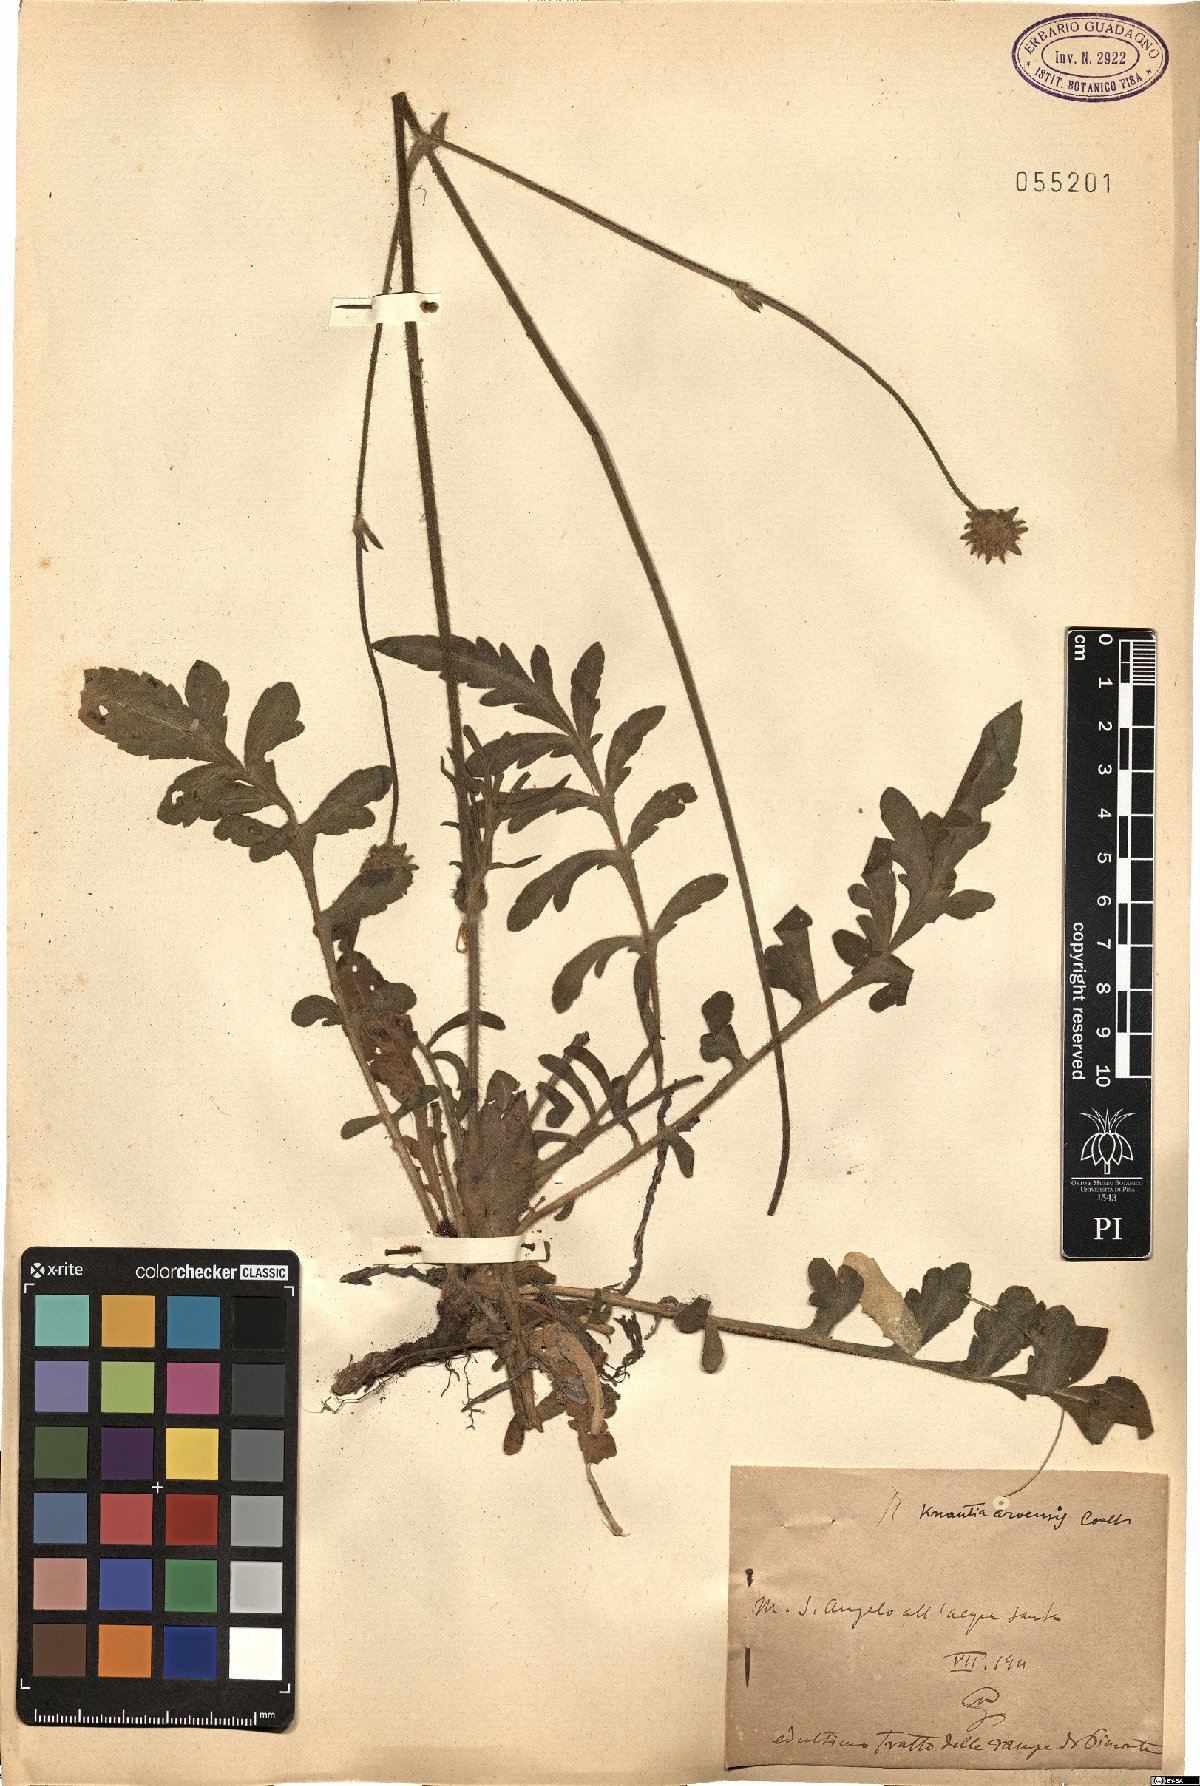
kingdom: Plantae
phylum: Tracheophyta
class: Magnoliopsida
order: Dipsacales
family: Caprifoliaceae
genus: Knautia
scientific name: Knautia arvensis
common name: Field scabiosa
